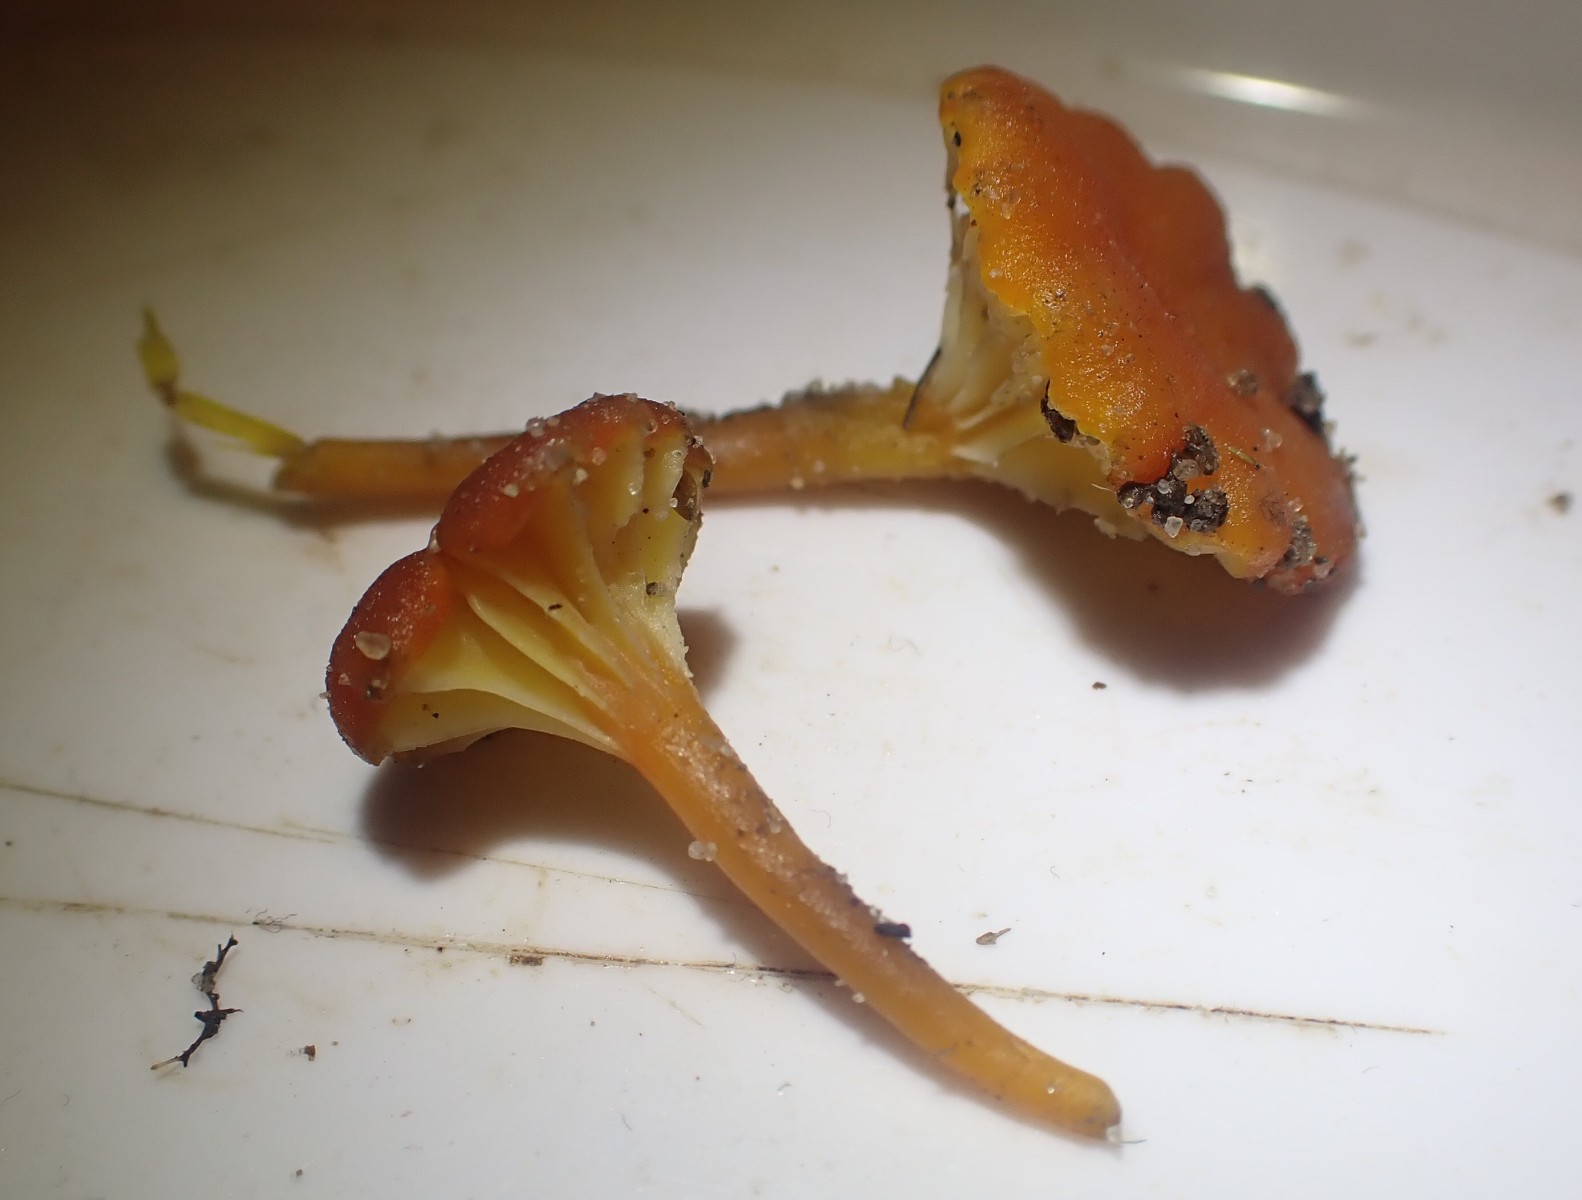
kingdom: Fungi
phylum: Basidiomycota
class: Agaricomycetes
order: Agaricales
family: Hygrophoraceae
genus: Hygrocybe
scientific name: Hygrocybe cantharellus
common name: kantarel-vokshat
